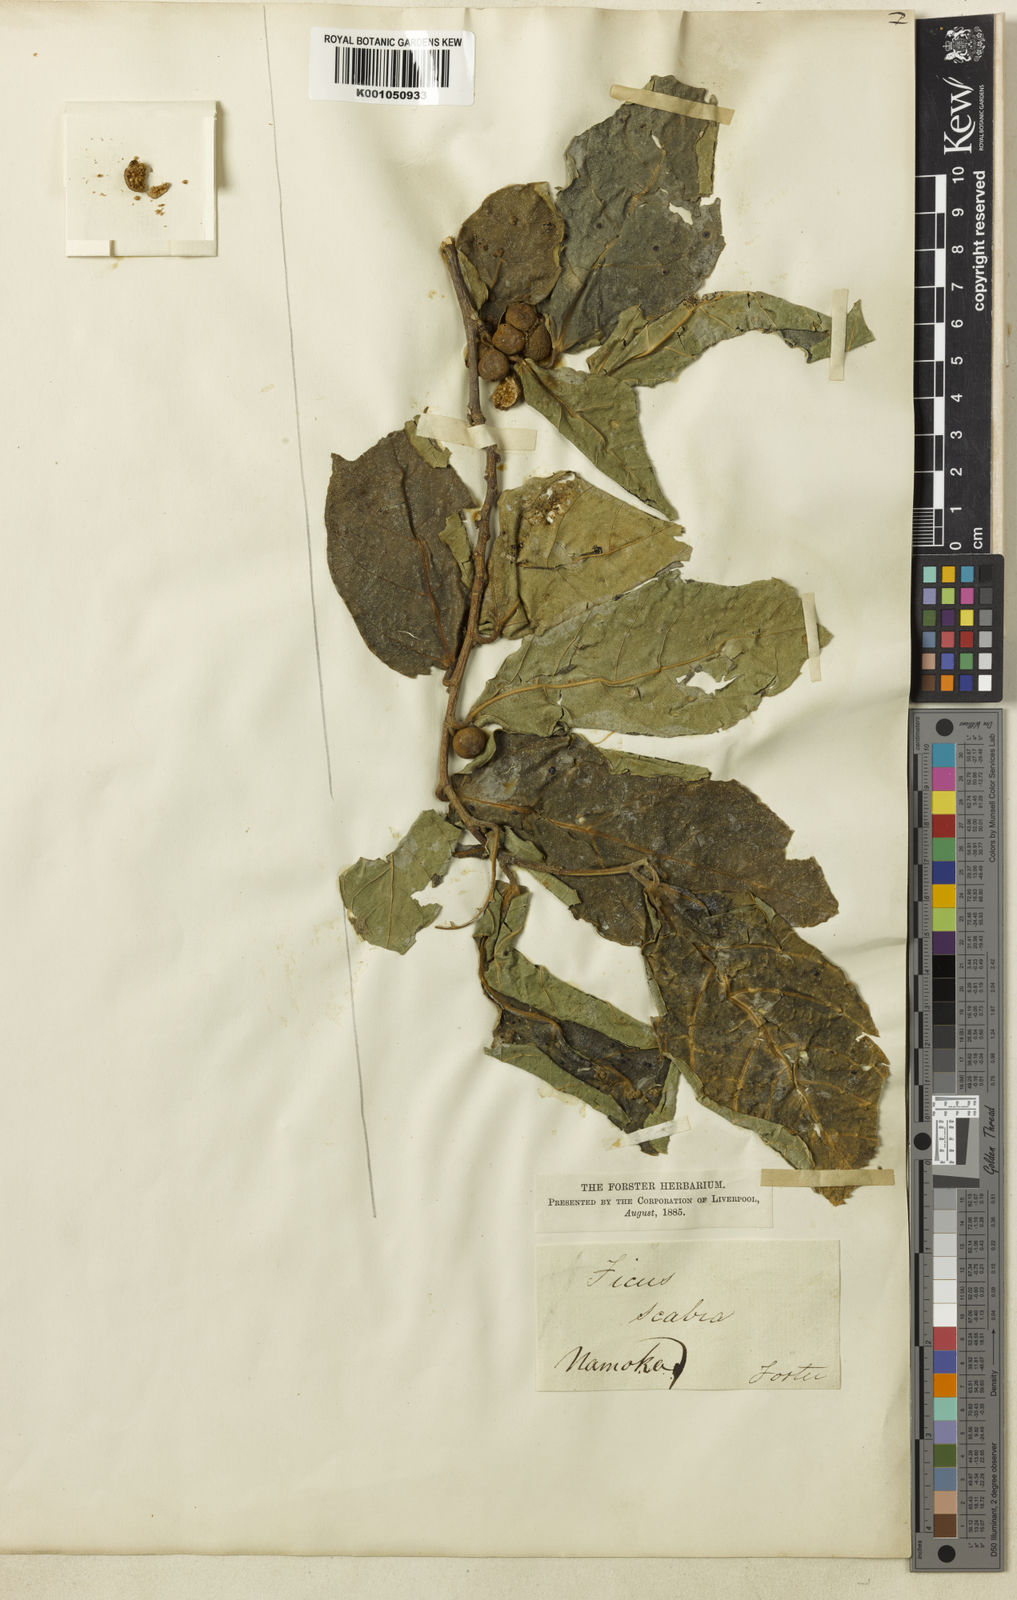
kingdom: Plantae
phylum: Tracheophyta
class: Magnoliopsida
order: Rosales
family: Moraceae
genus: Ficus
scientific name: Ficus scabra
